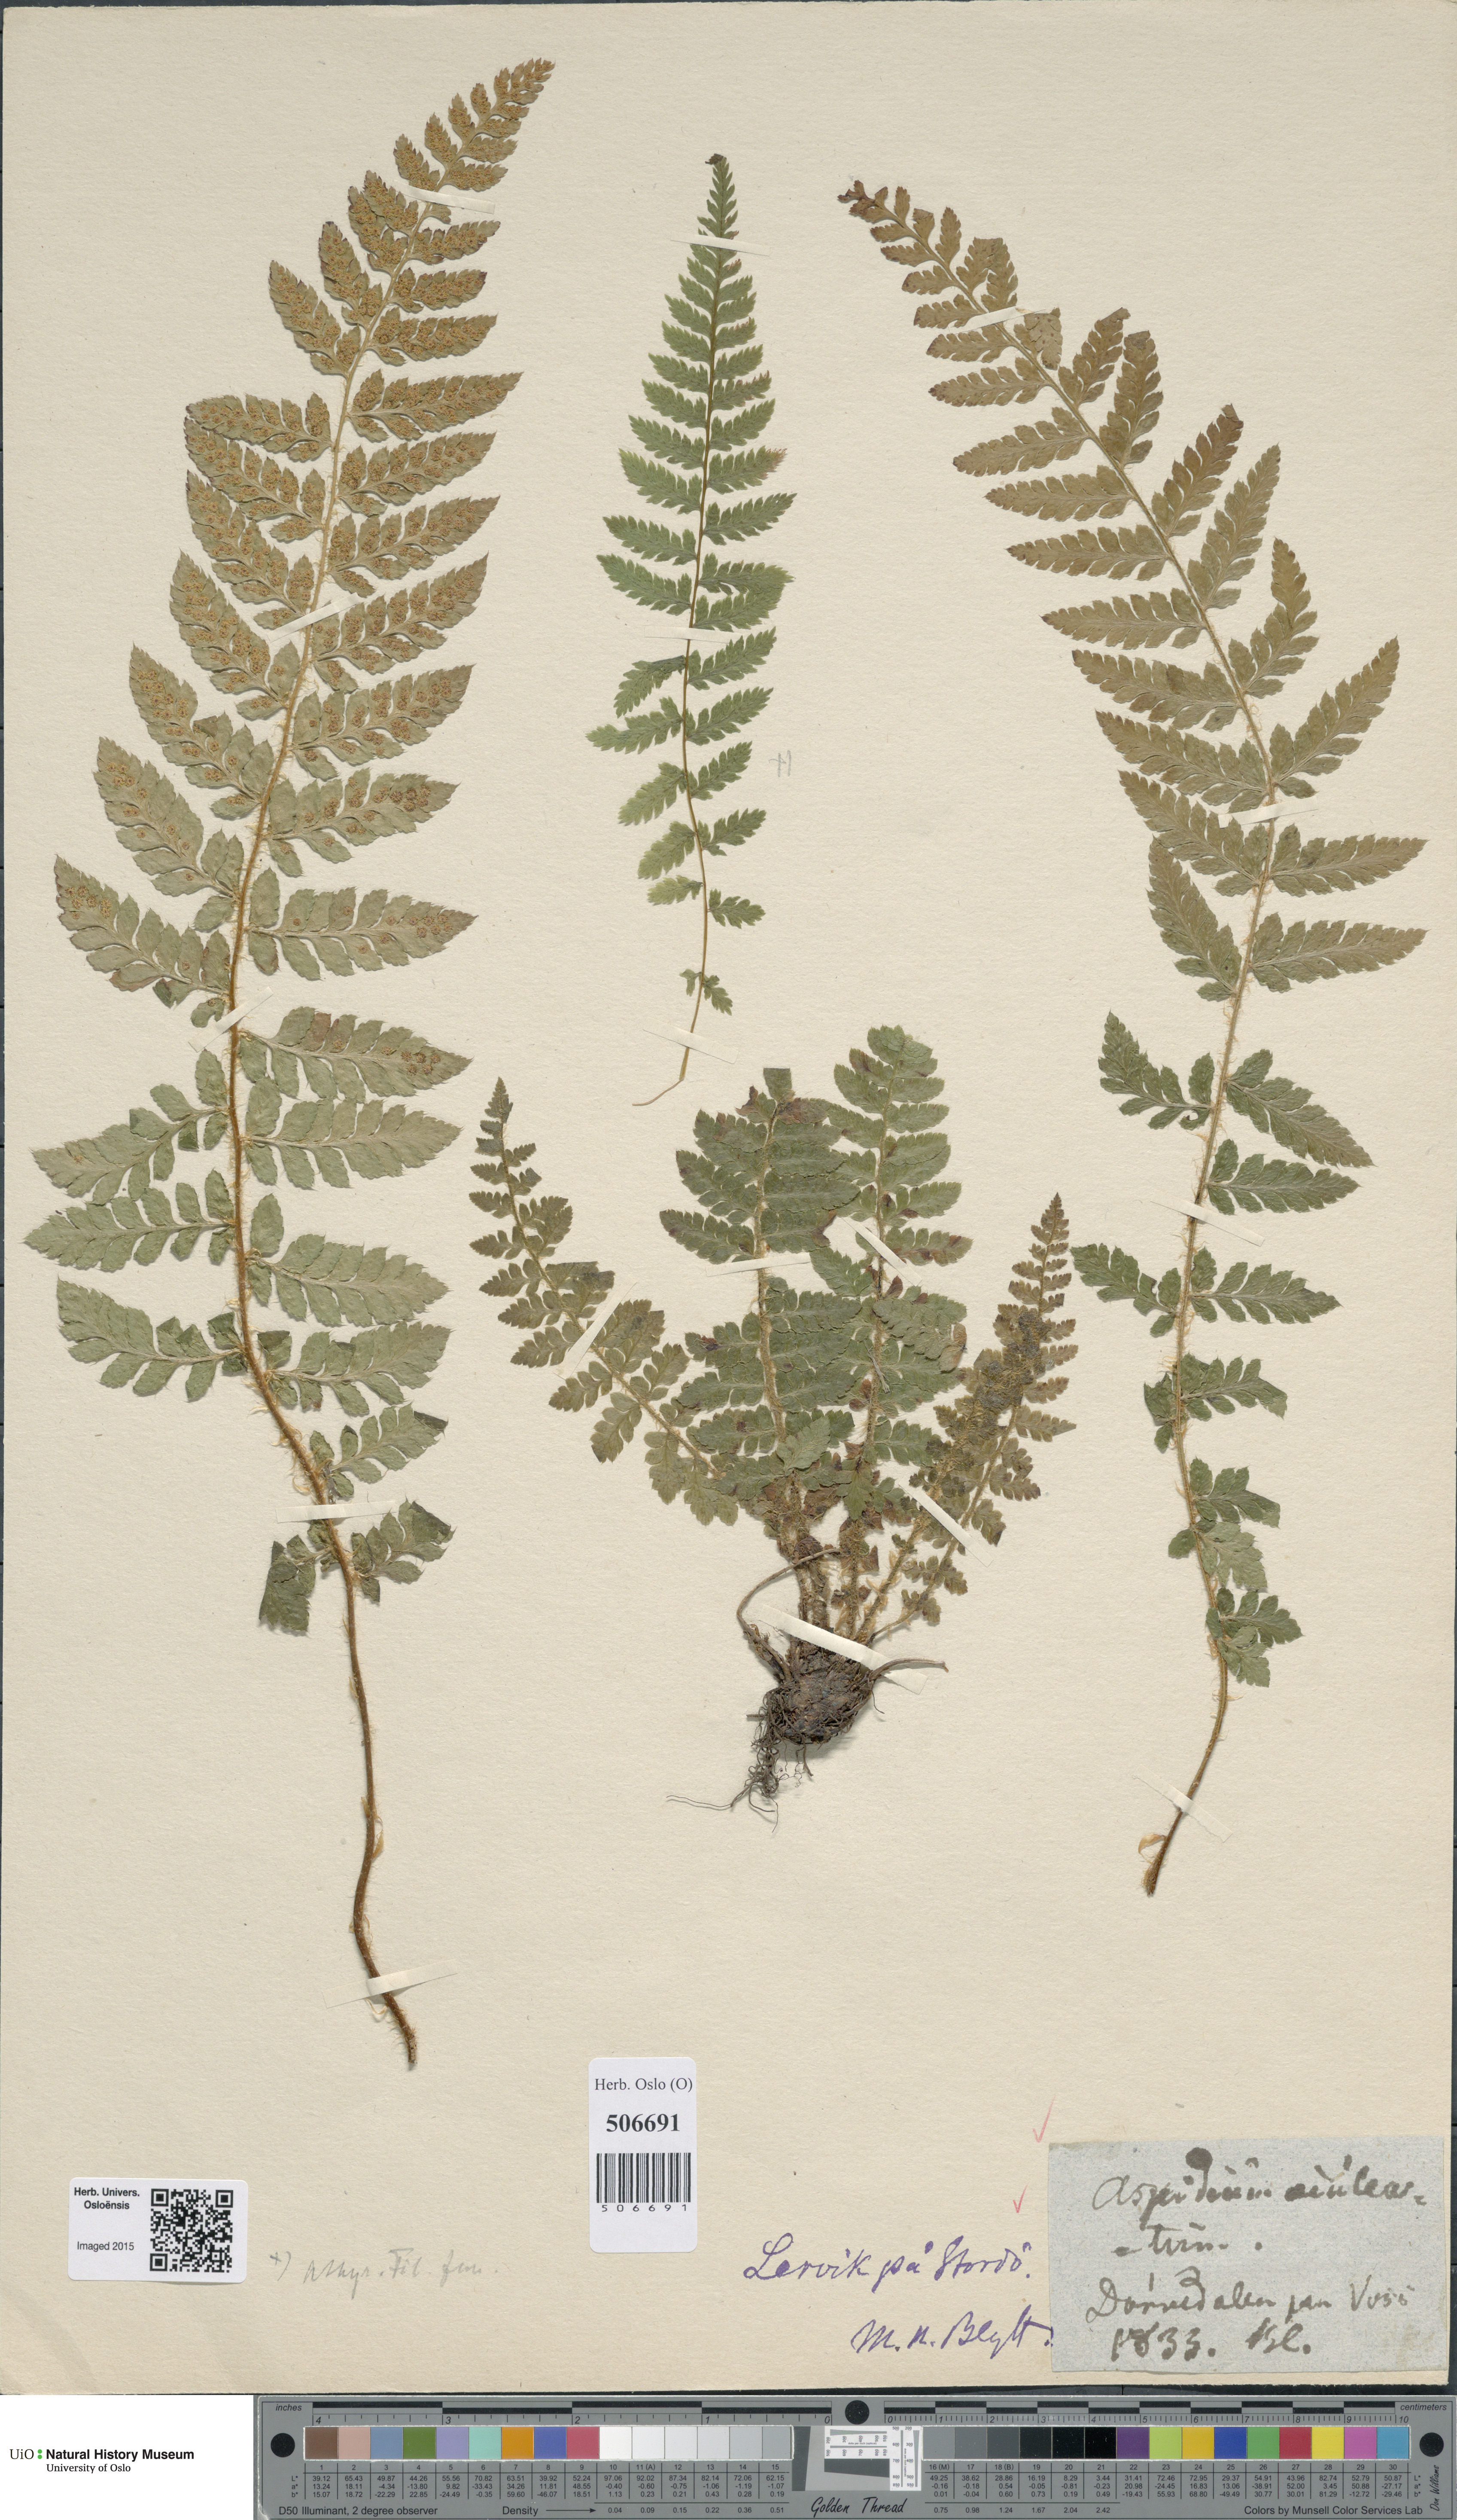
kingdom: Plantae
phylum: Tracheophyta
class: Polypodiopsida
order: Polypodiales
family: Dryopteridaceae
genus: Polystichum
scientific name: Polystichum aculeatum
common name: Hard shield-fern
